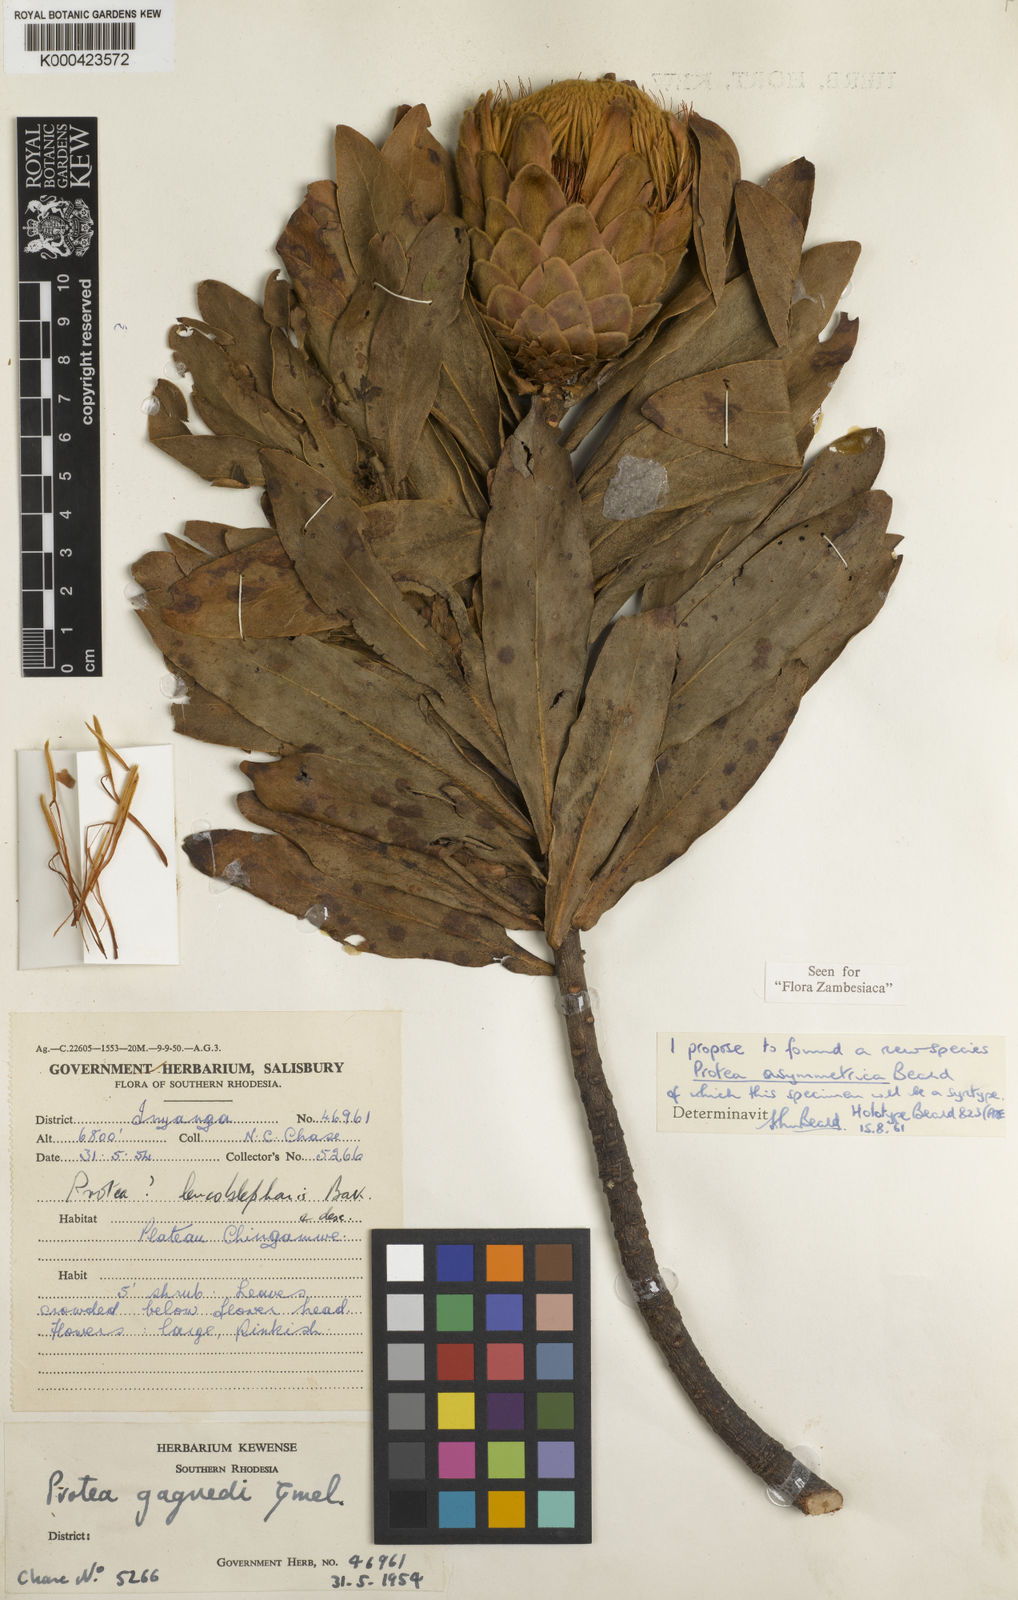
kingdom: Plantae
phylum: Tracheophyta
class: Magnoliopsida
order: Proteales
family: Proteaceae
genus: Protea
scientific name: Protea asymmetrica
